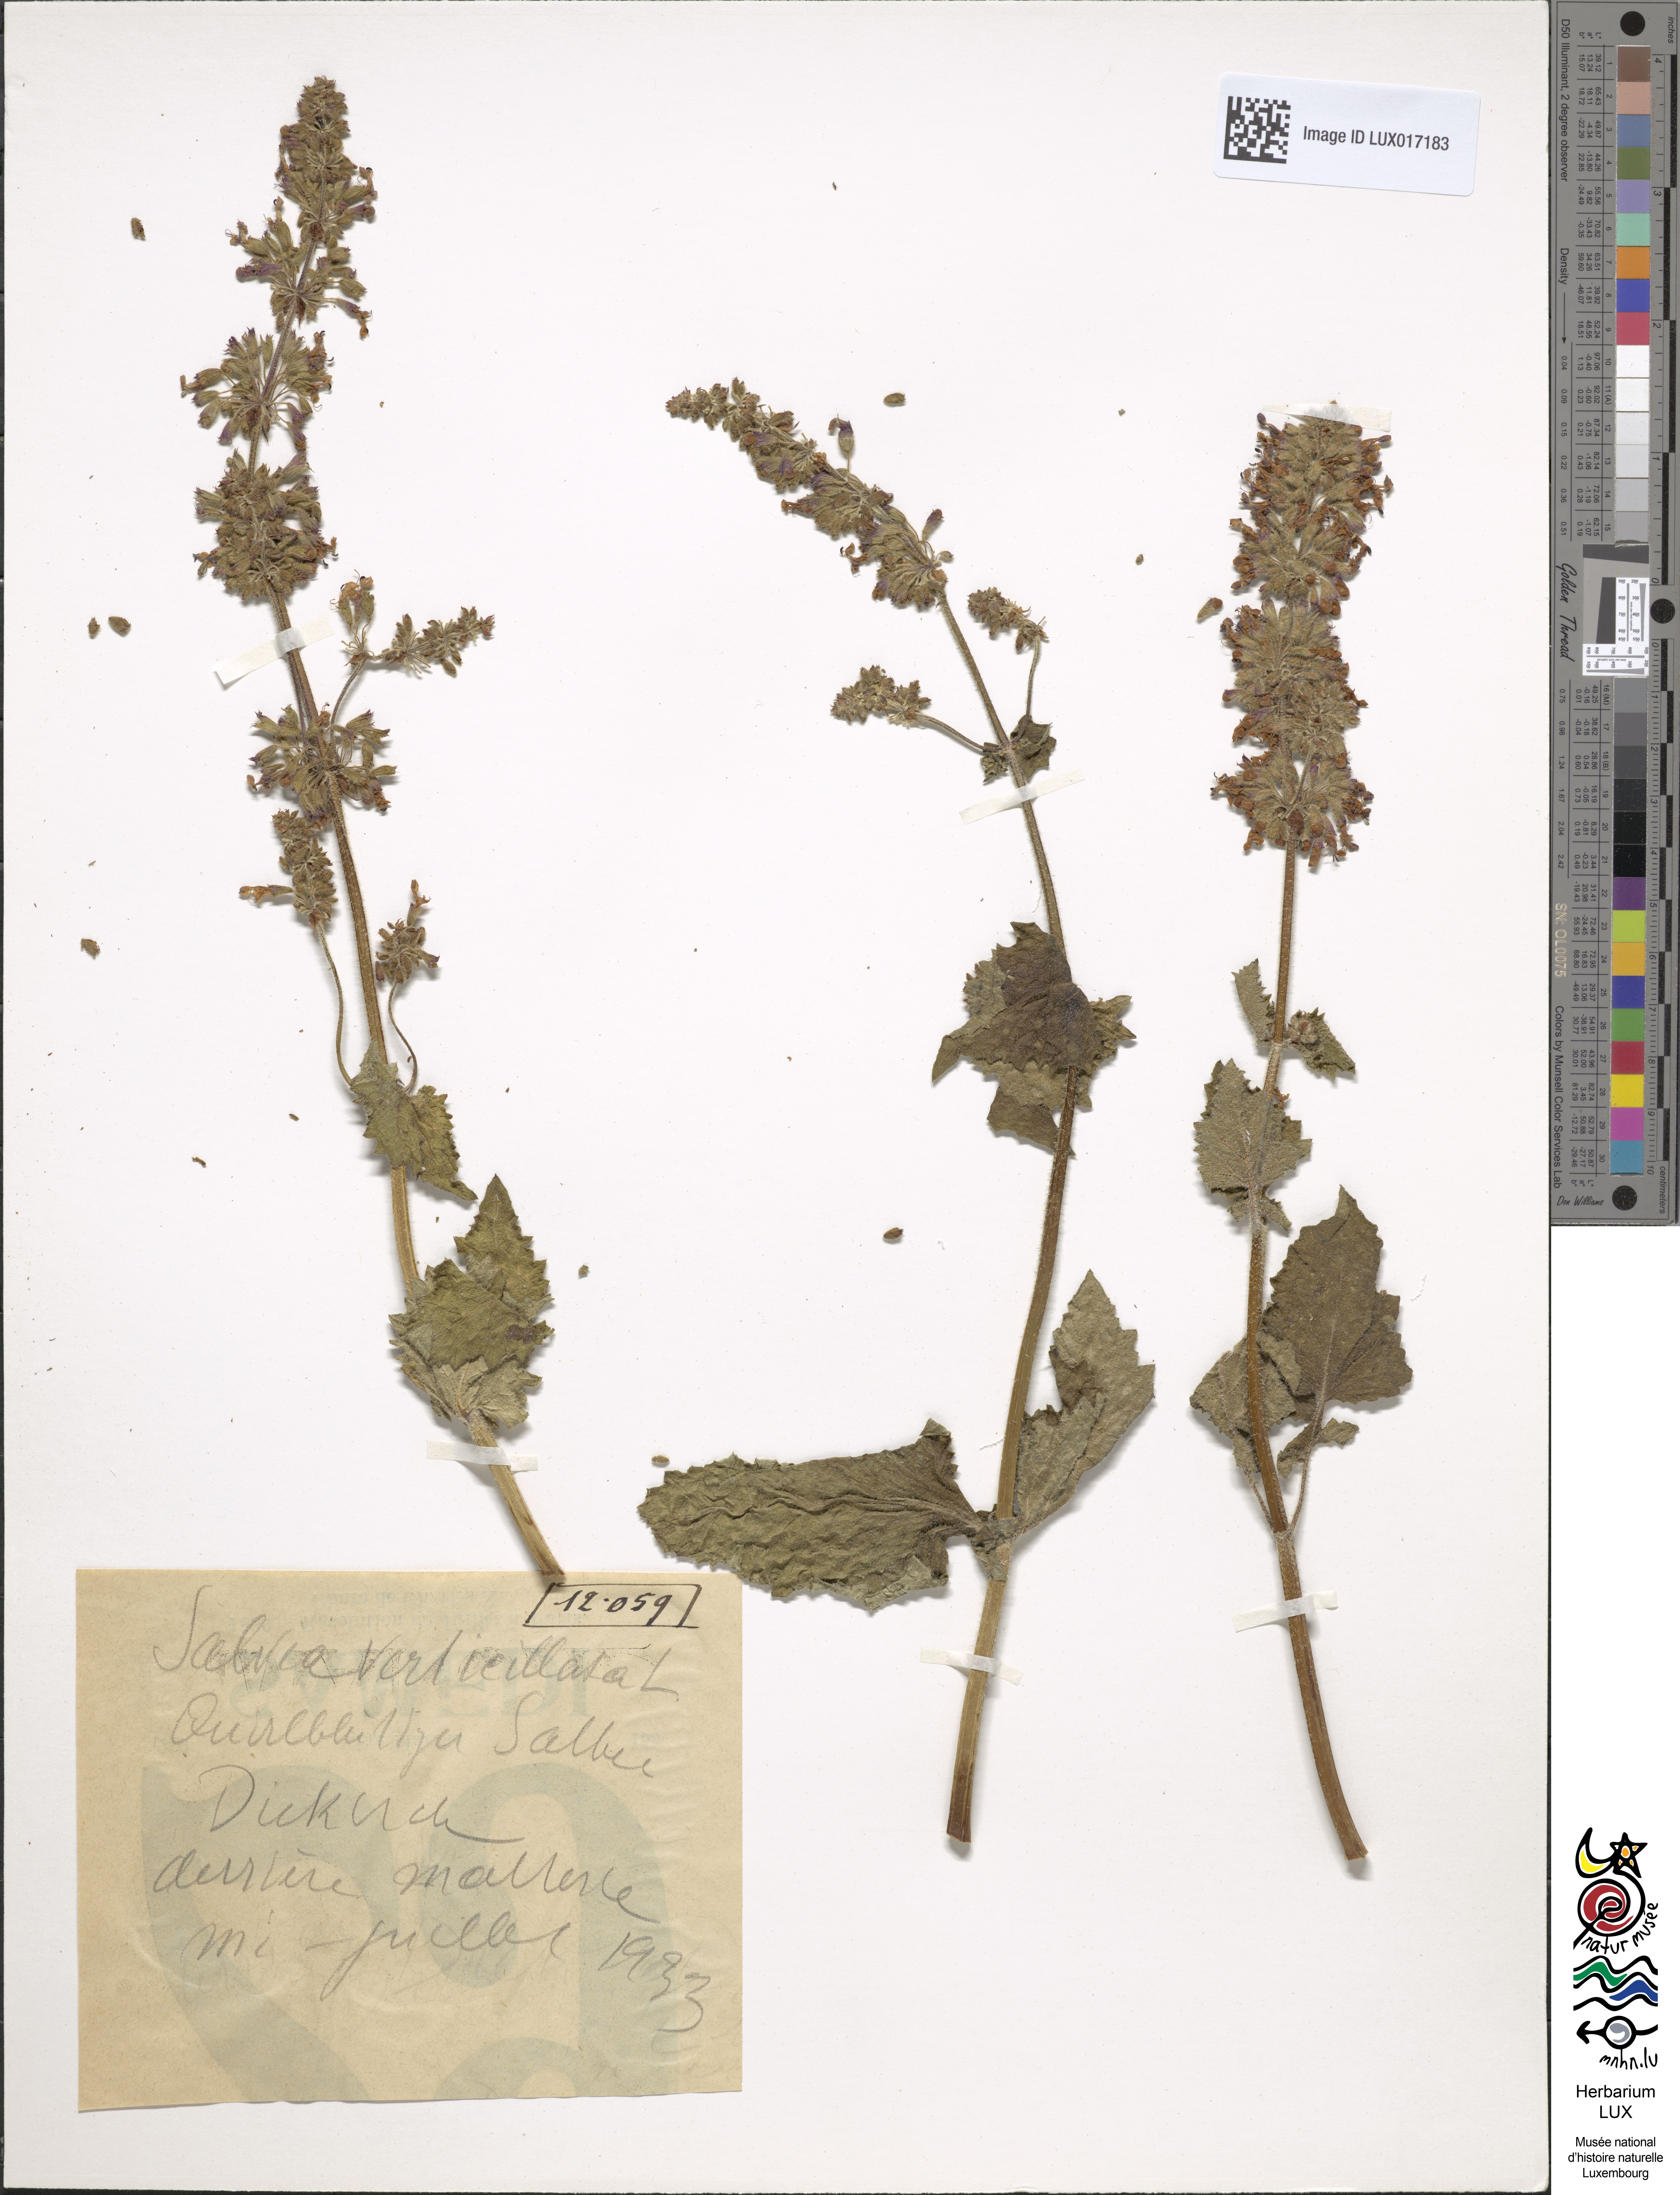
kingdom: Plantae
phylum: Tracheophyta
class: Magnoliopsida
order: Lamiales
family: Lamiaceae
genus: Salvia
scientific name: Salvia verticillata
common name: Whorled clary
